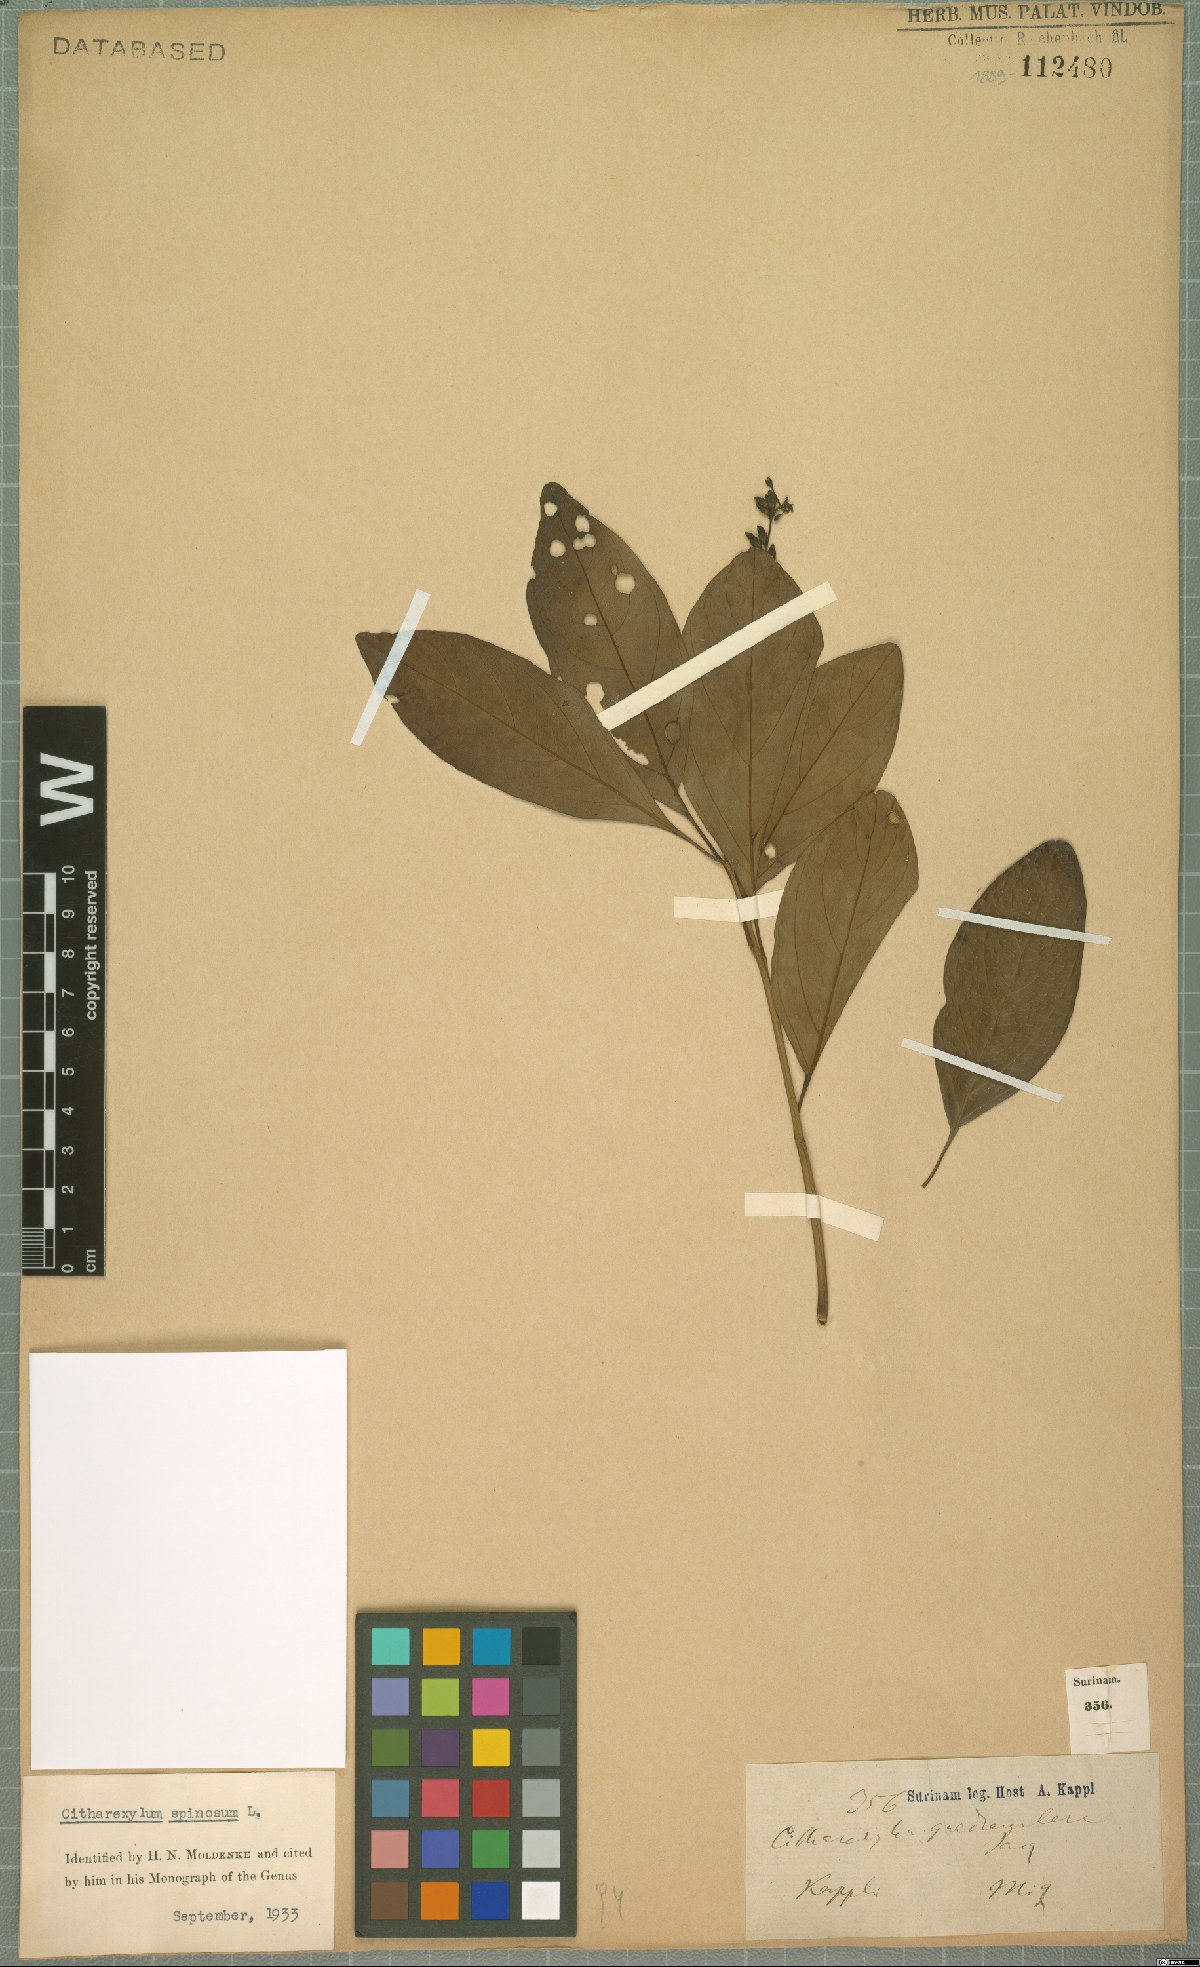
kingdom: Plantae
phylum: Tracheophyta
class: Magnoliopsida
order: Lamiales
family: Verbenaceae
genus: Citharexylum
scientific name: Citharexylum spinosum
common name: Fiddlewood
